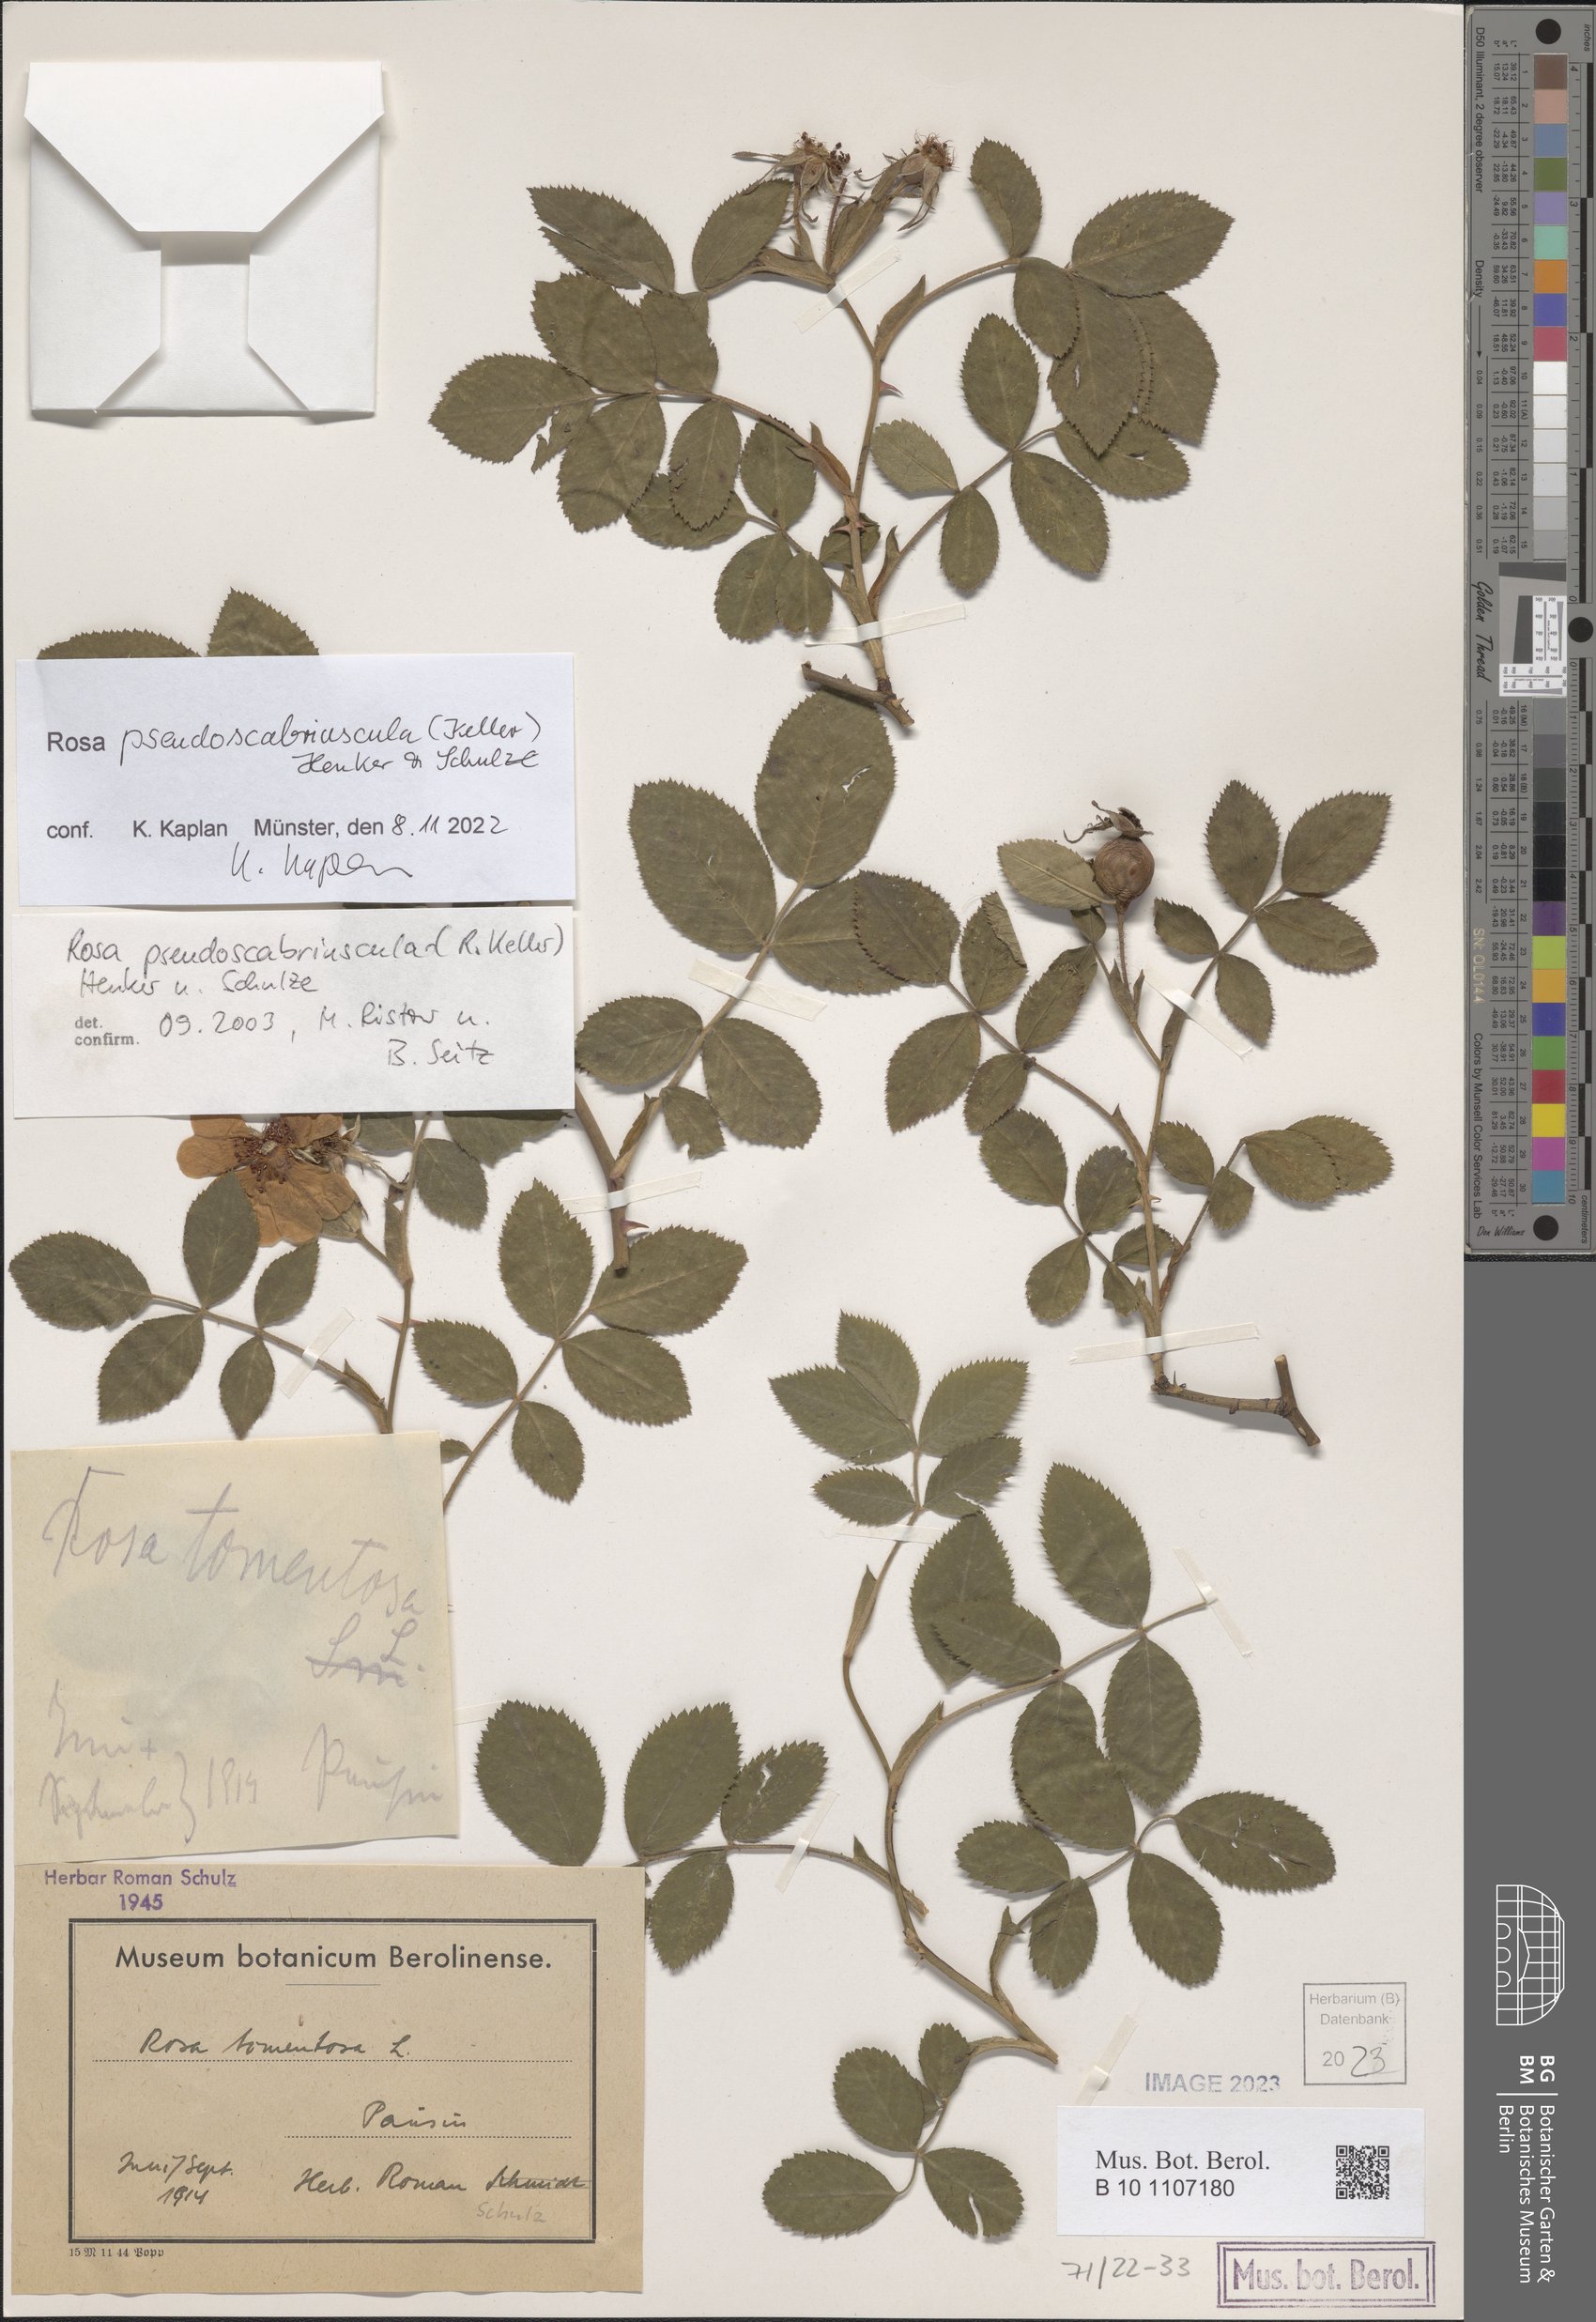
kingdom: Plantae
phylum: Tracheophyta
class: Magnoliopsida
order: Rosales
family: Rosaceae
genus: Rosa
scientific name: Rosa pseudoscabriuscula
